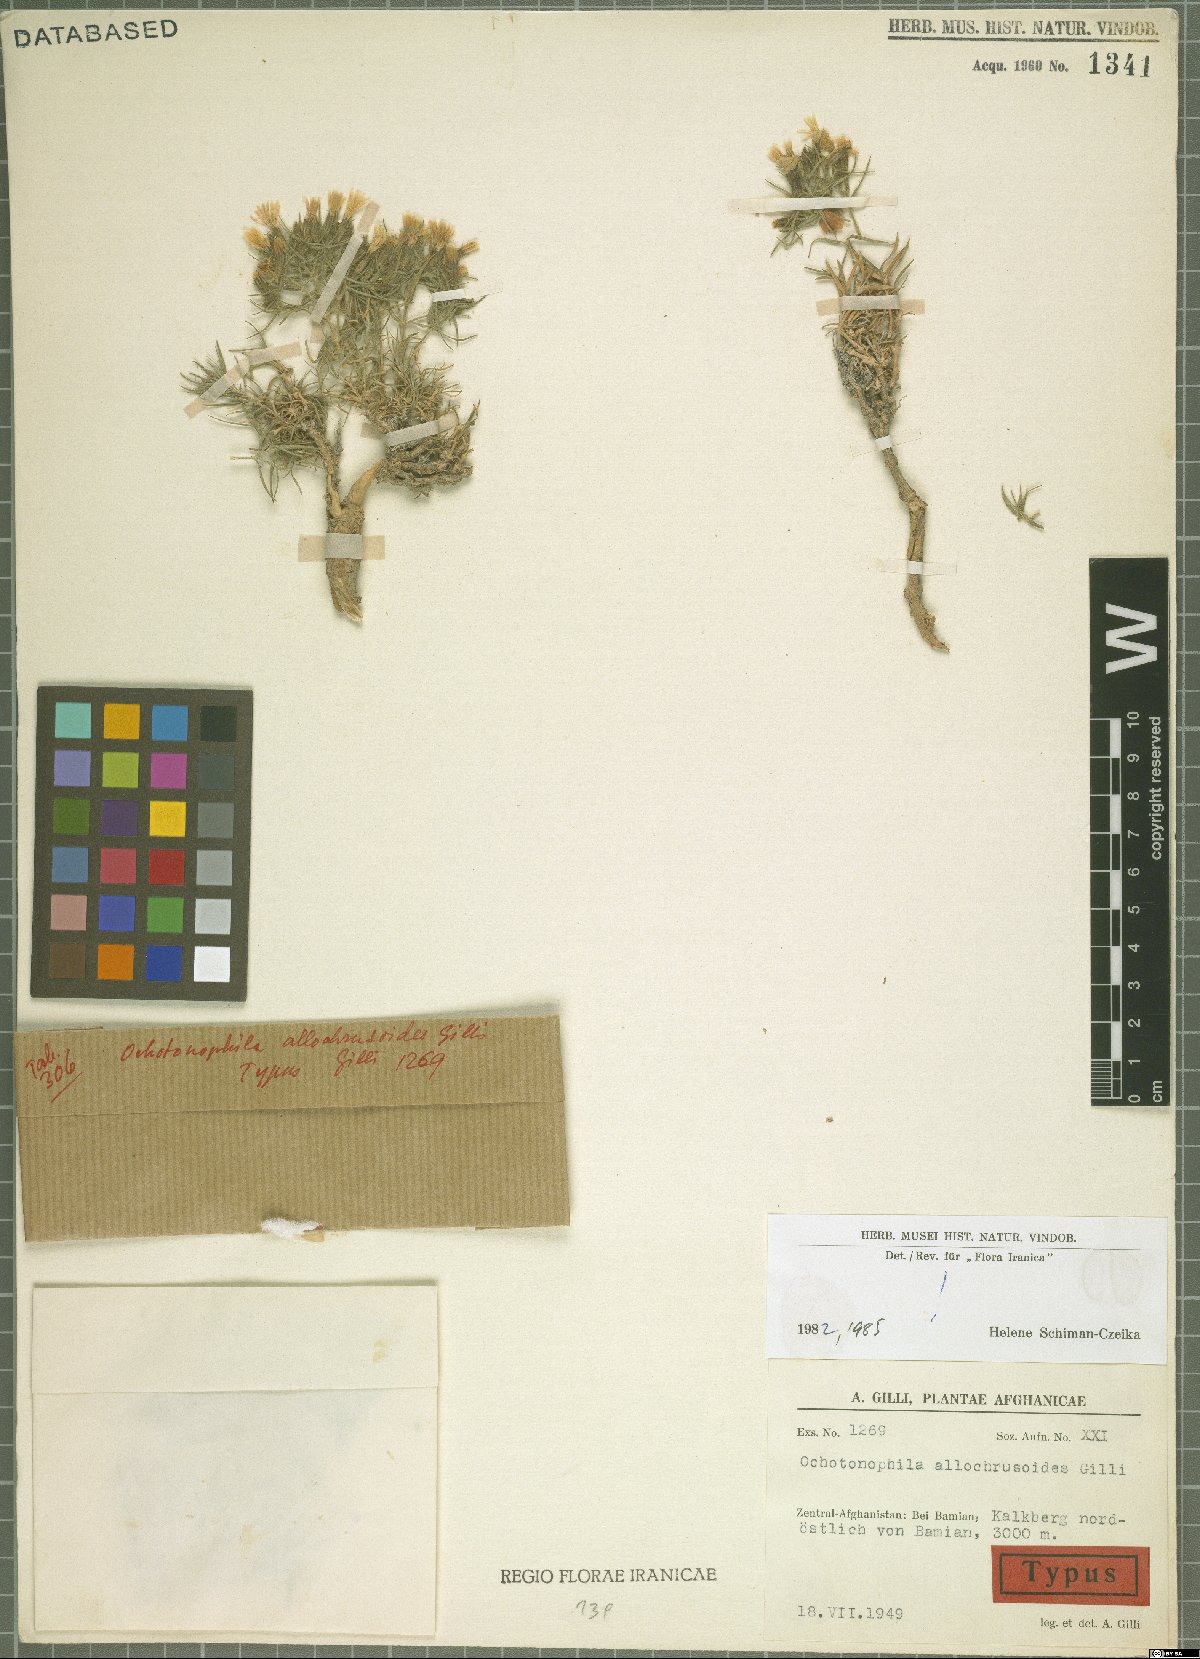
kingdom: Plantae
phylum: Tracheophyta
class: Magnoliopsida
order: Caryophyllales
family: Caryophyllaceae
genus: Acanthophyllum
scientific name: Acanthophyllum allochrusoides
